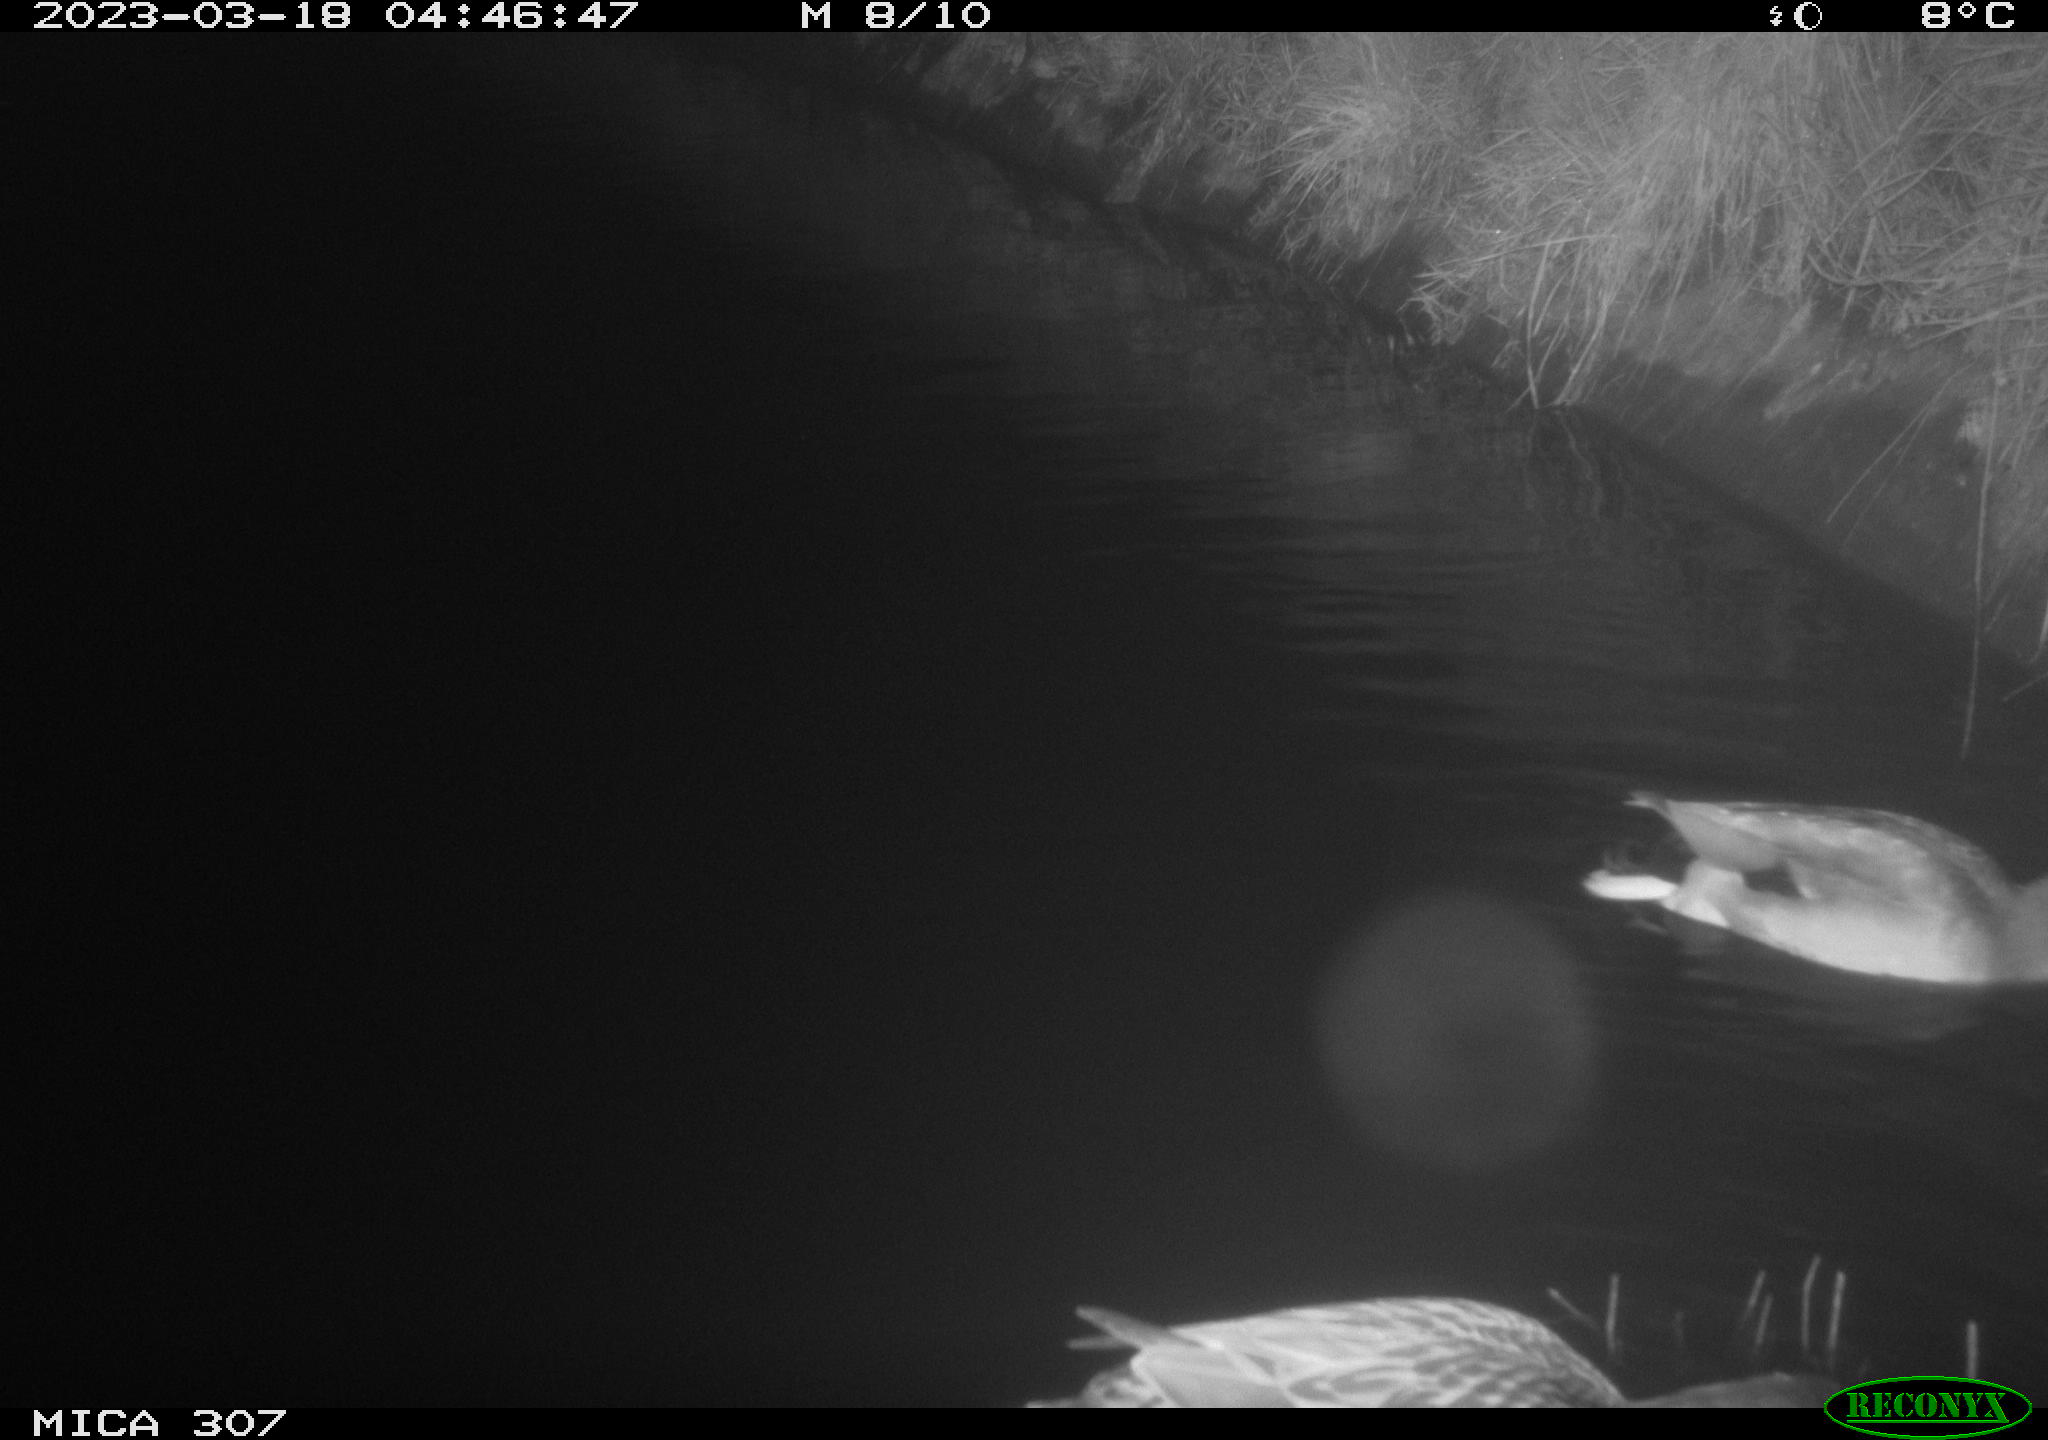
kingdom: Animalia
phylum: Chordata
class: Aves
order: Anseriformes
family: Anatidae
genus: Anas
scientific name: Anas
